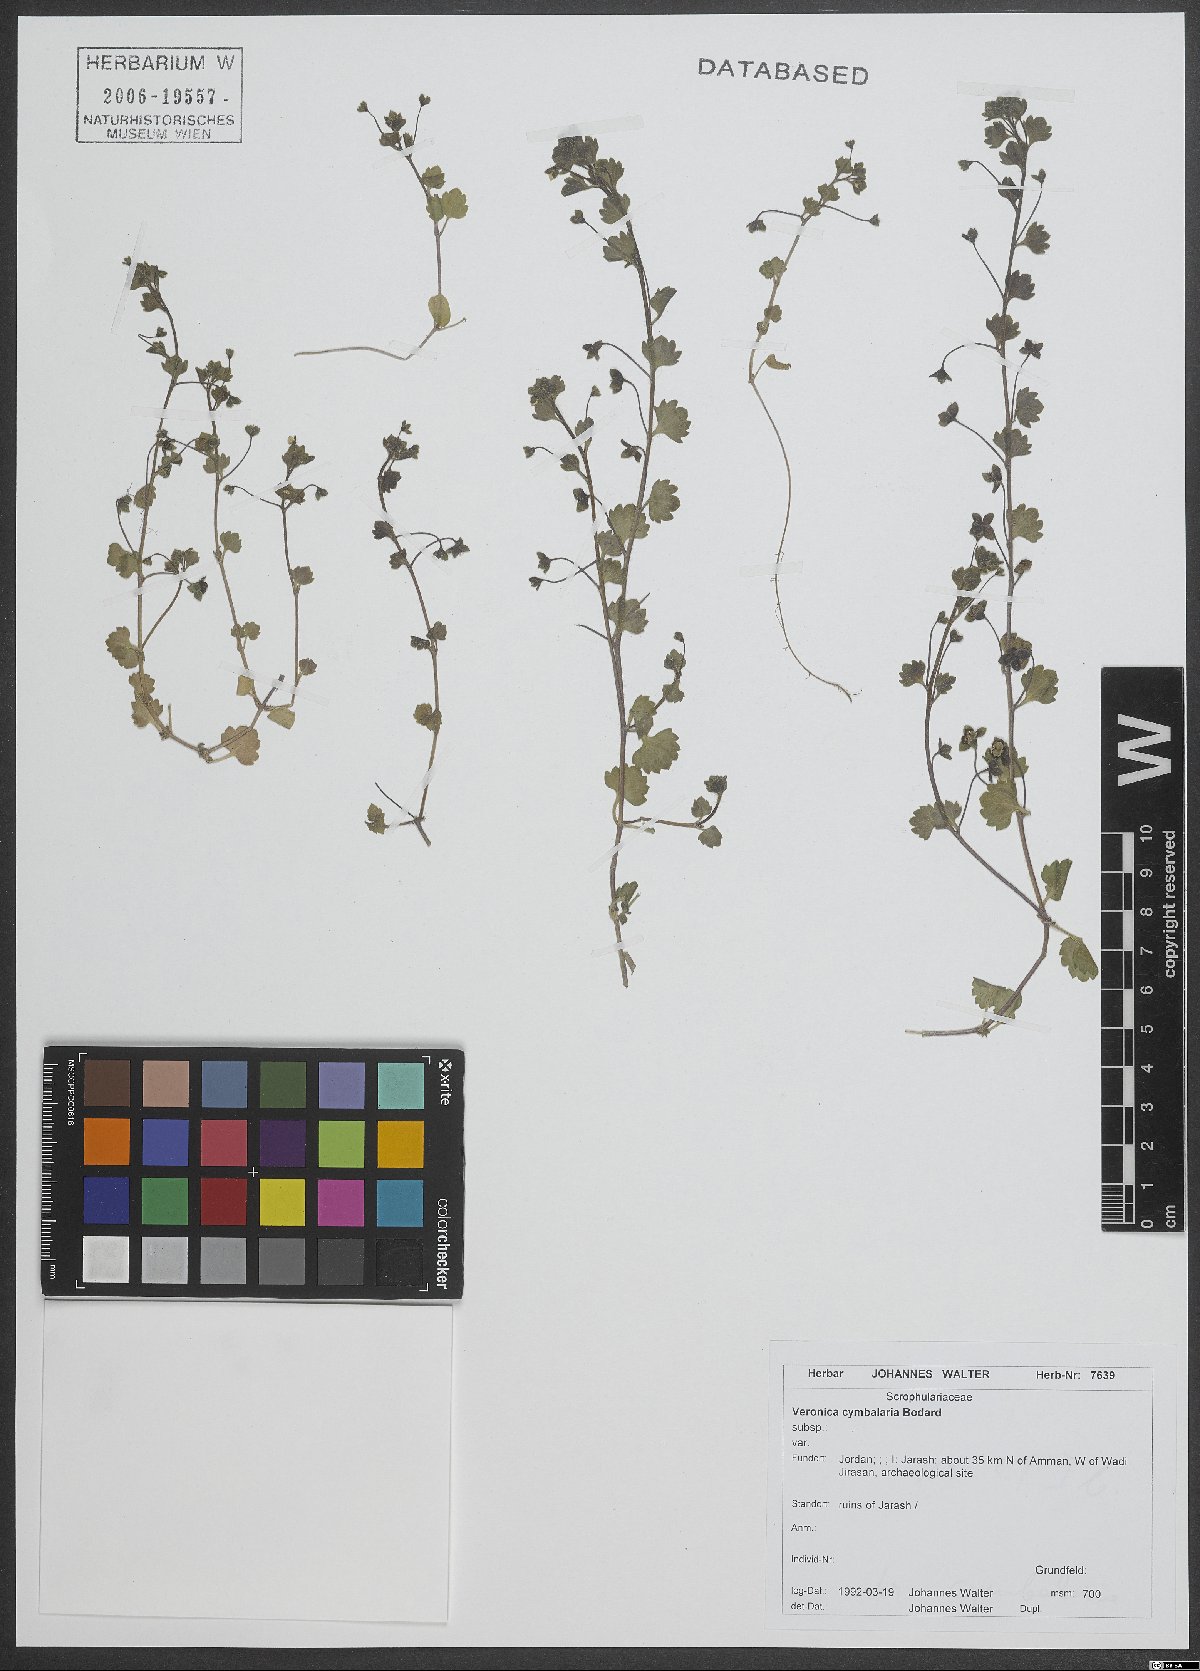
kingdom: Plantae
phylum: Tracheophyta
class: Magnoliopsida
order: Lamiales
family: Plantaginaceae
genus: Veronica
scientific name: Veronica cymbalaria
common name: Pale speedwell
